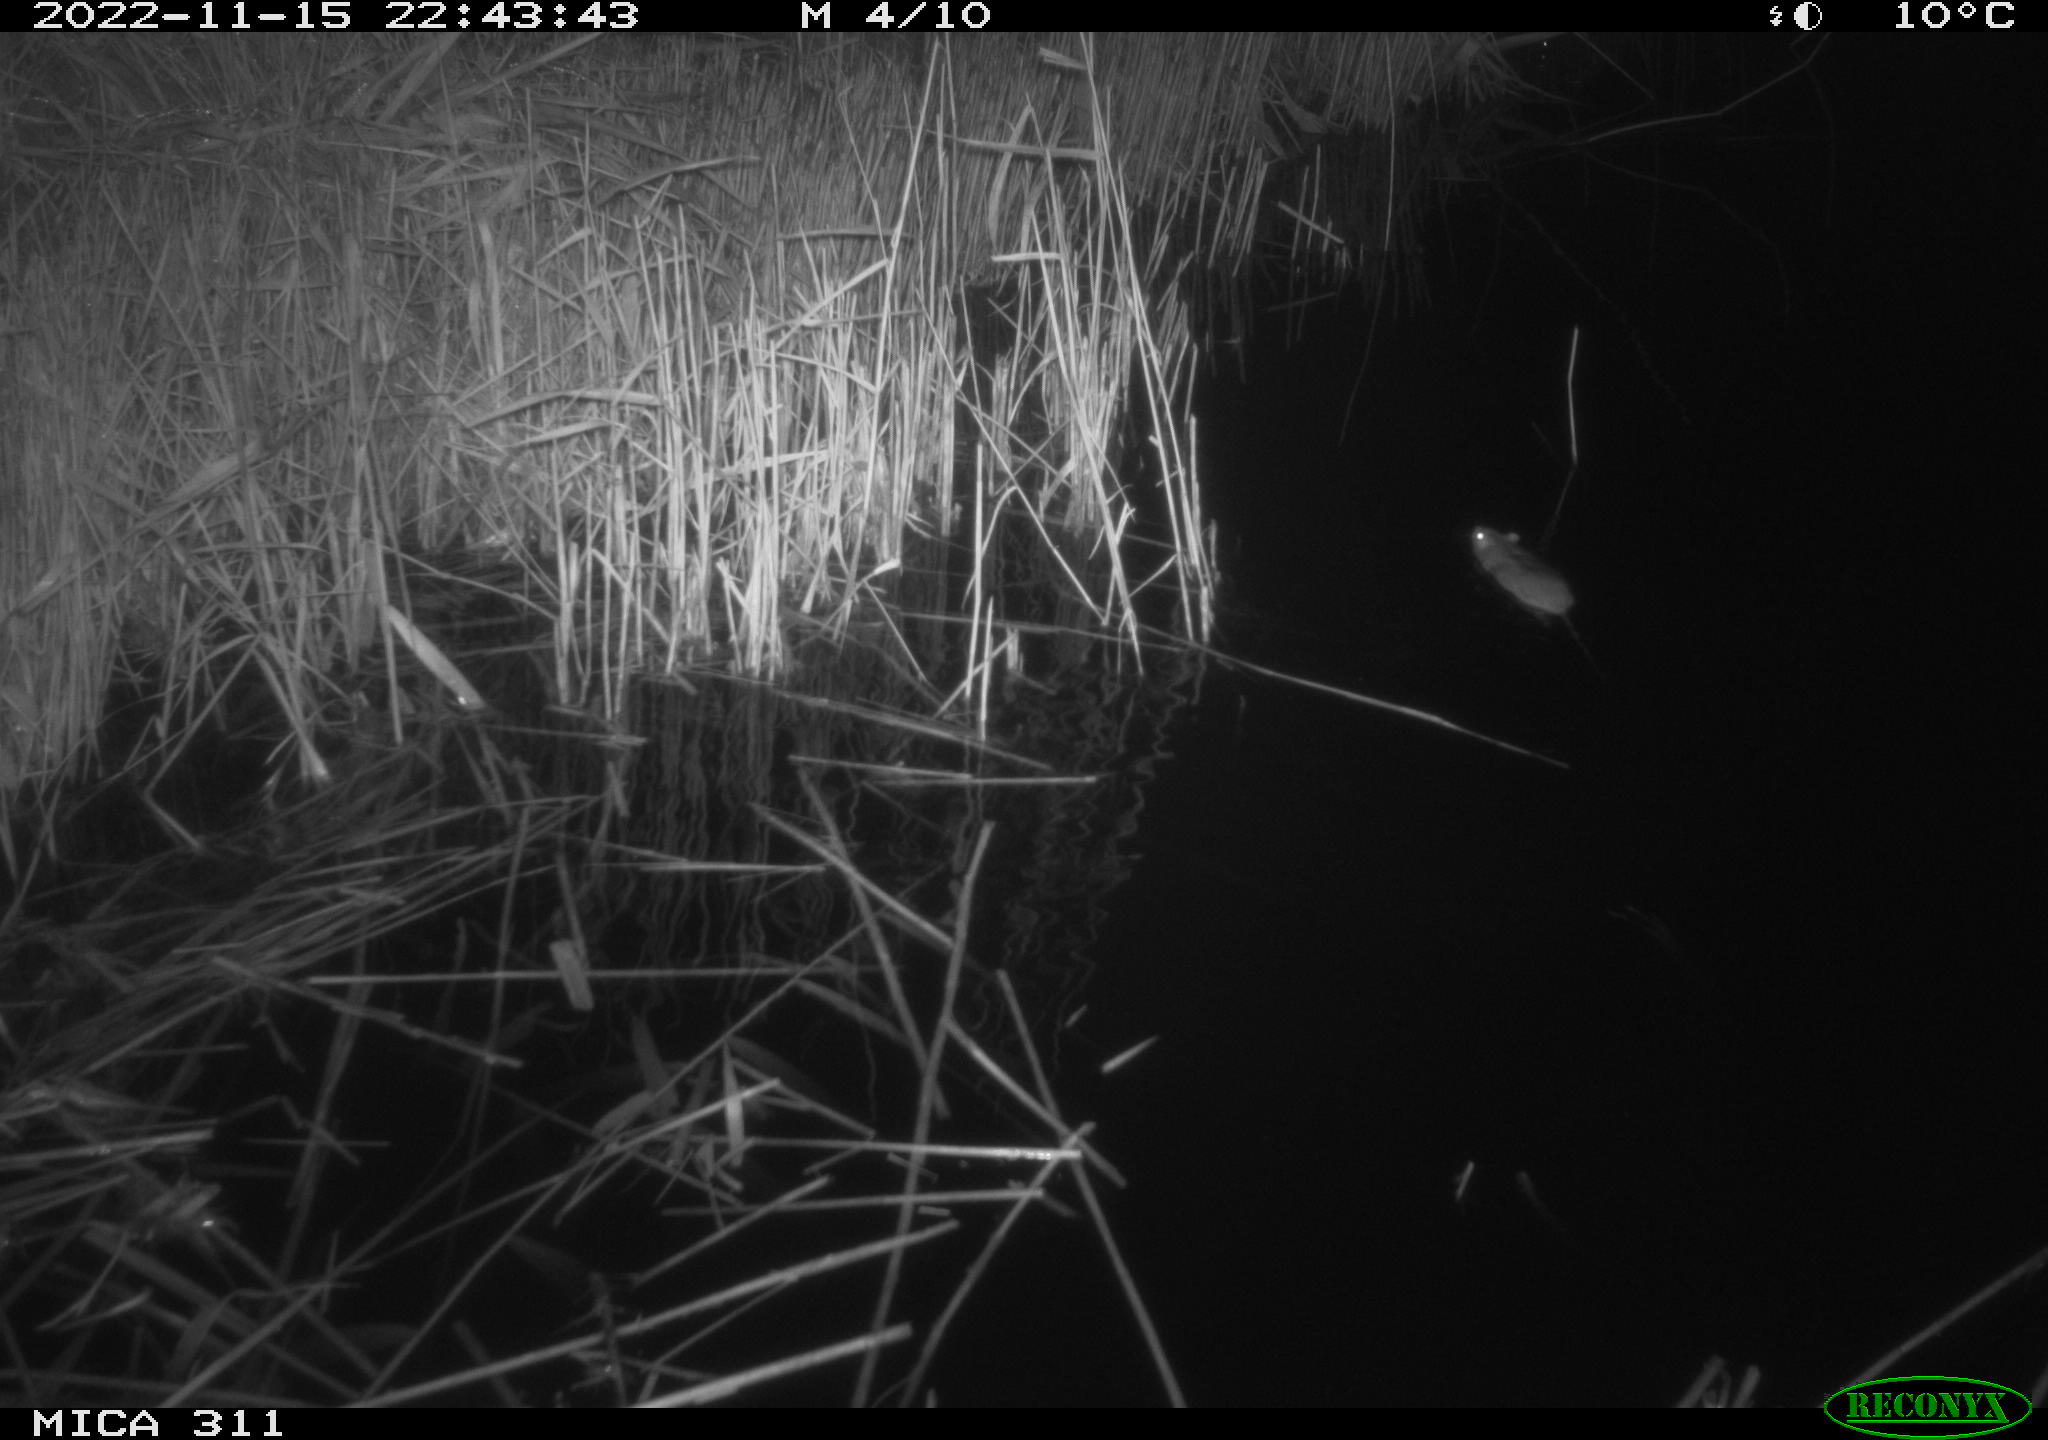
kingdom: Animalia
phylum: Chordata
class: Mammalia
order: Rodentia
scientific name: Rodentia
